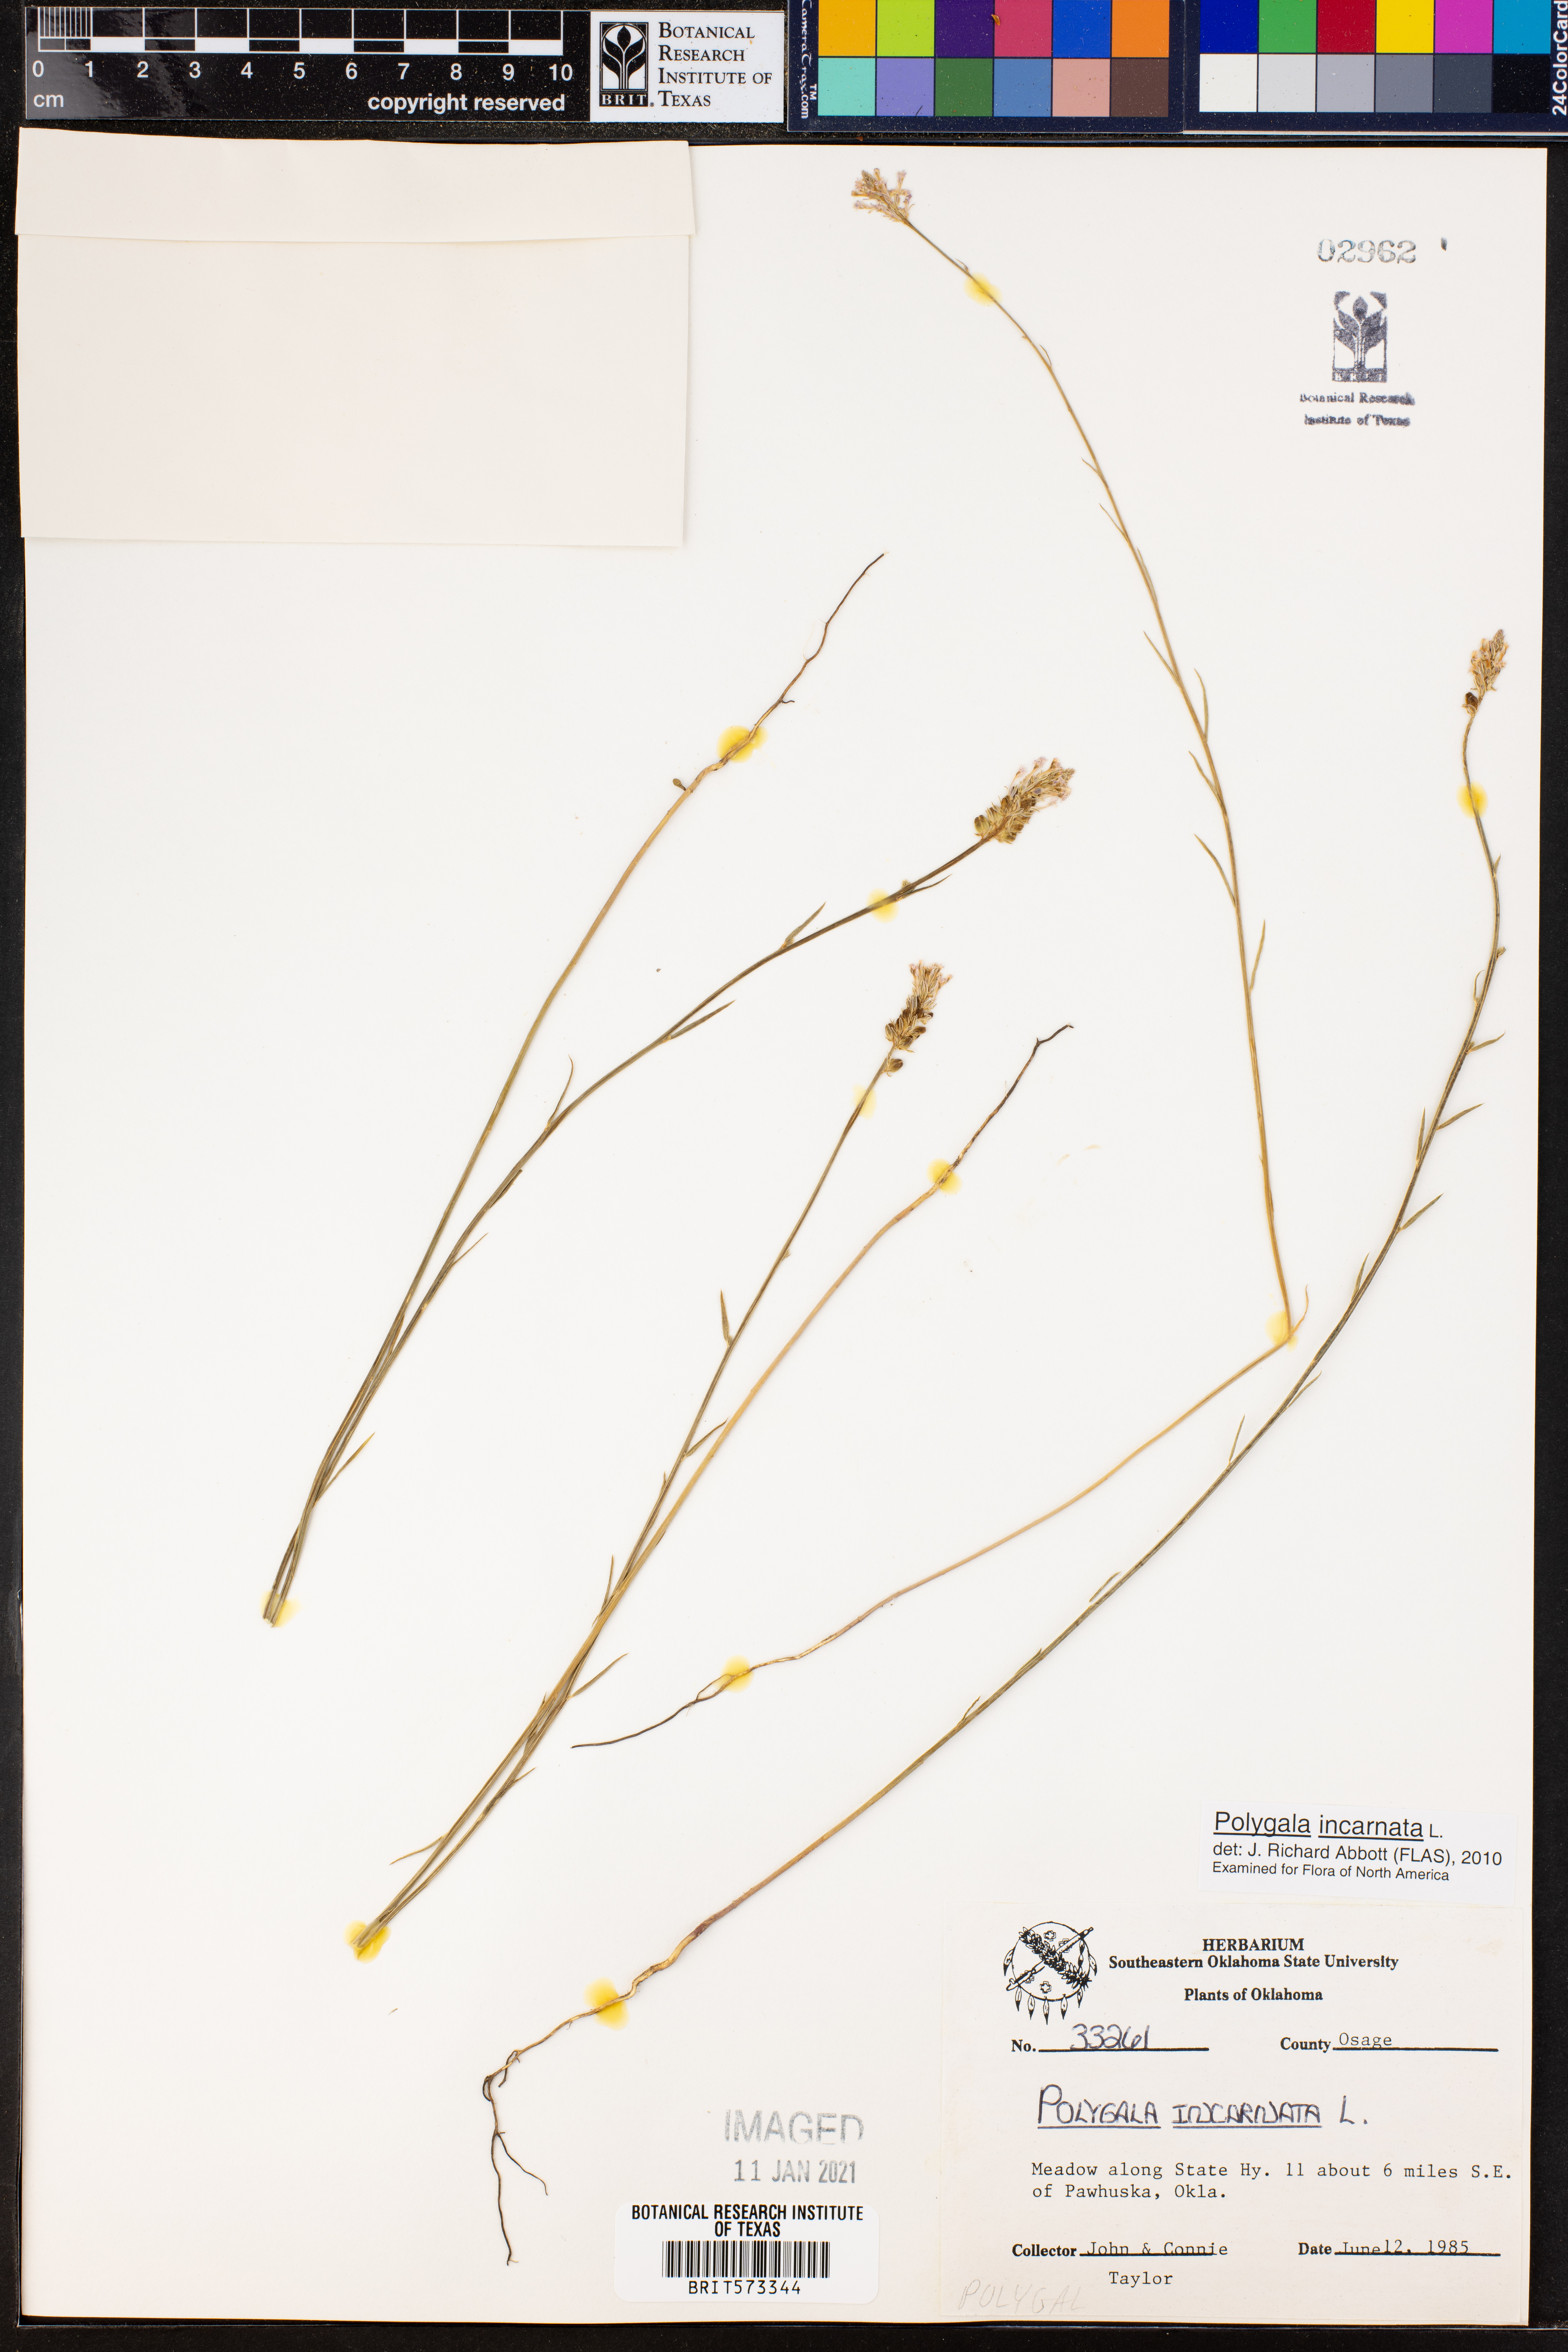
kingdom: Plantae
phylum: Tracheophyta
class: Magnoliopsida
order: Fabales
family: Polygalaceae
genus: Polygala
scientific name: Polygala incarnata
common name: Pink milkwort
